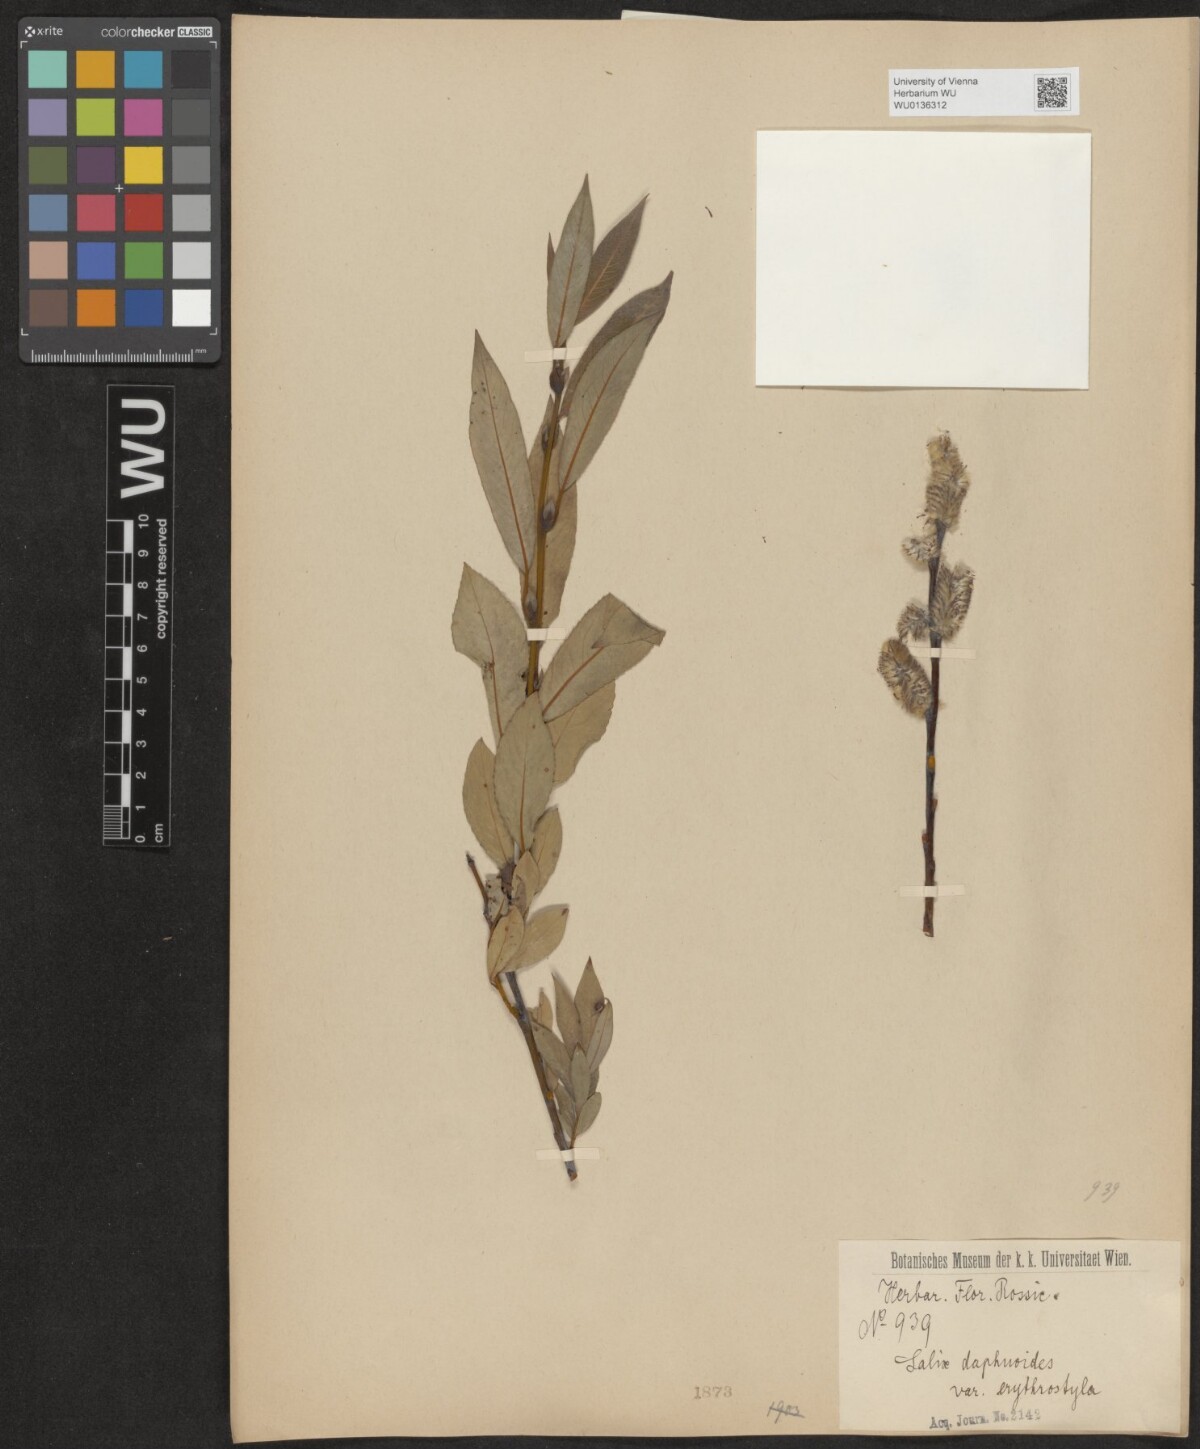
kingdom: Plantae
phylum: Tracheophyta
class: Magnoliopsida
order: Malpighiales
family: Salicaceae
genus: Salix
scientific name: Salix daphnoides
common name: European violet-willow
